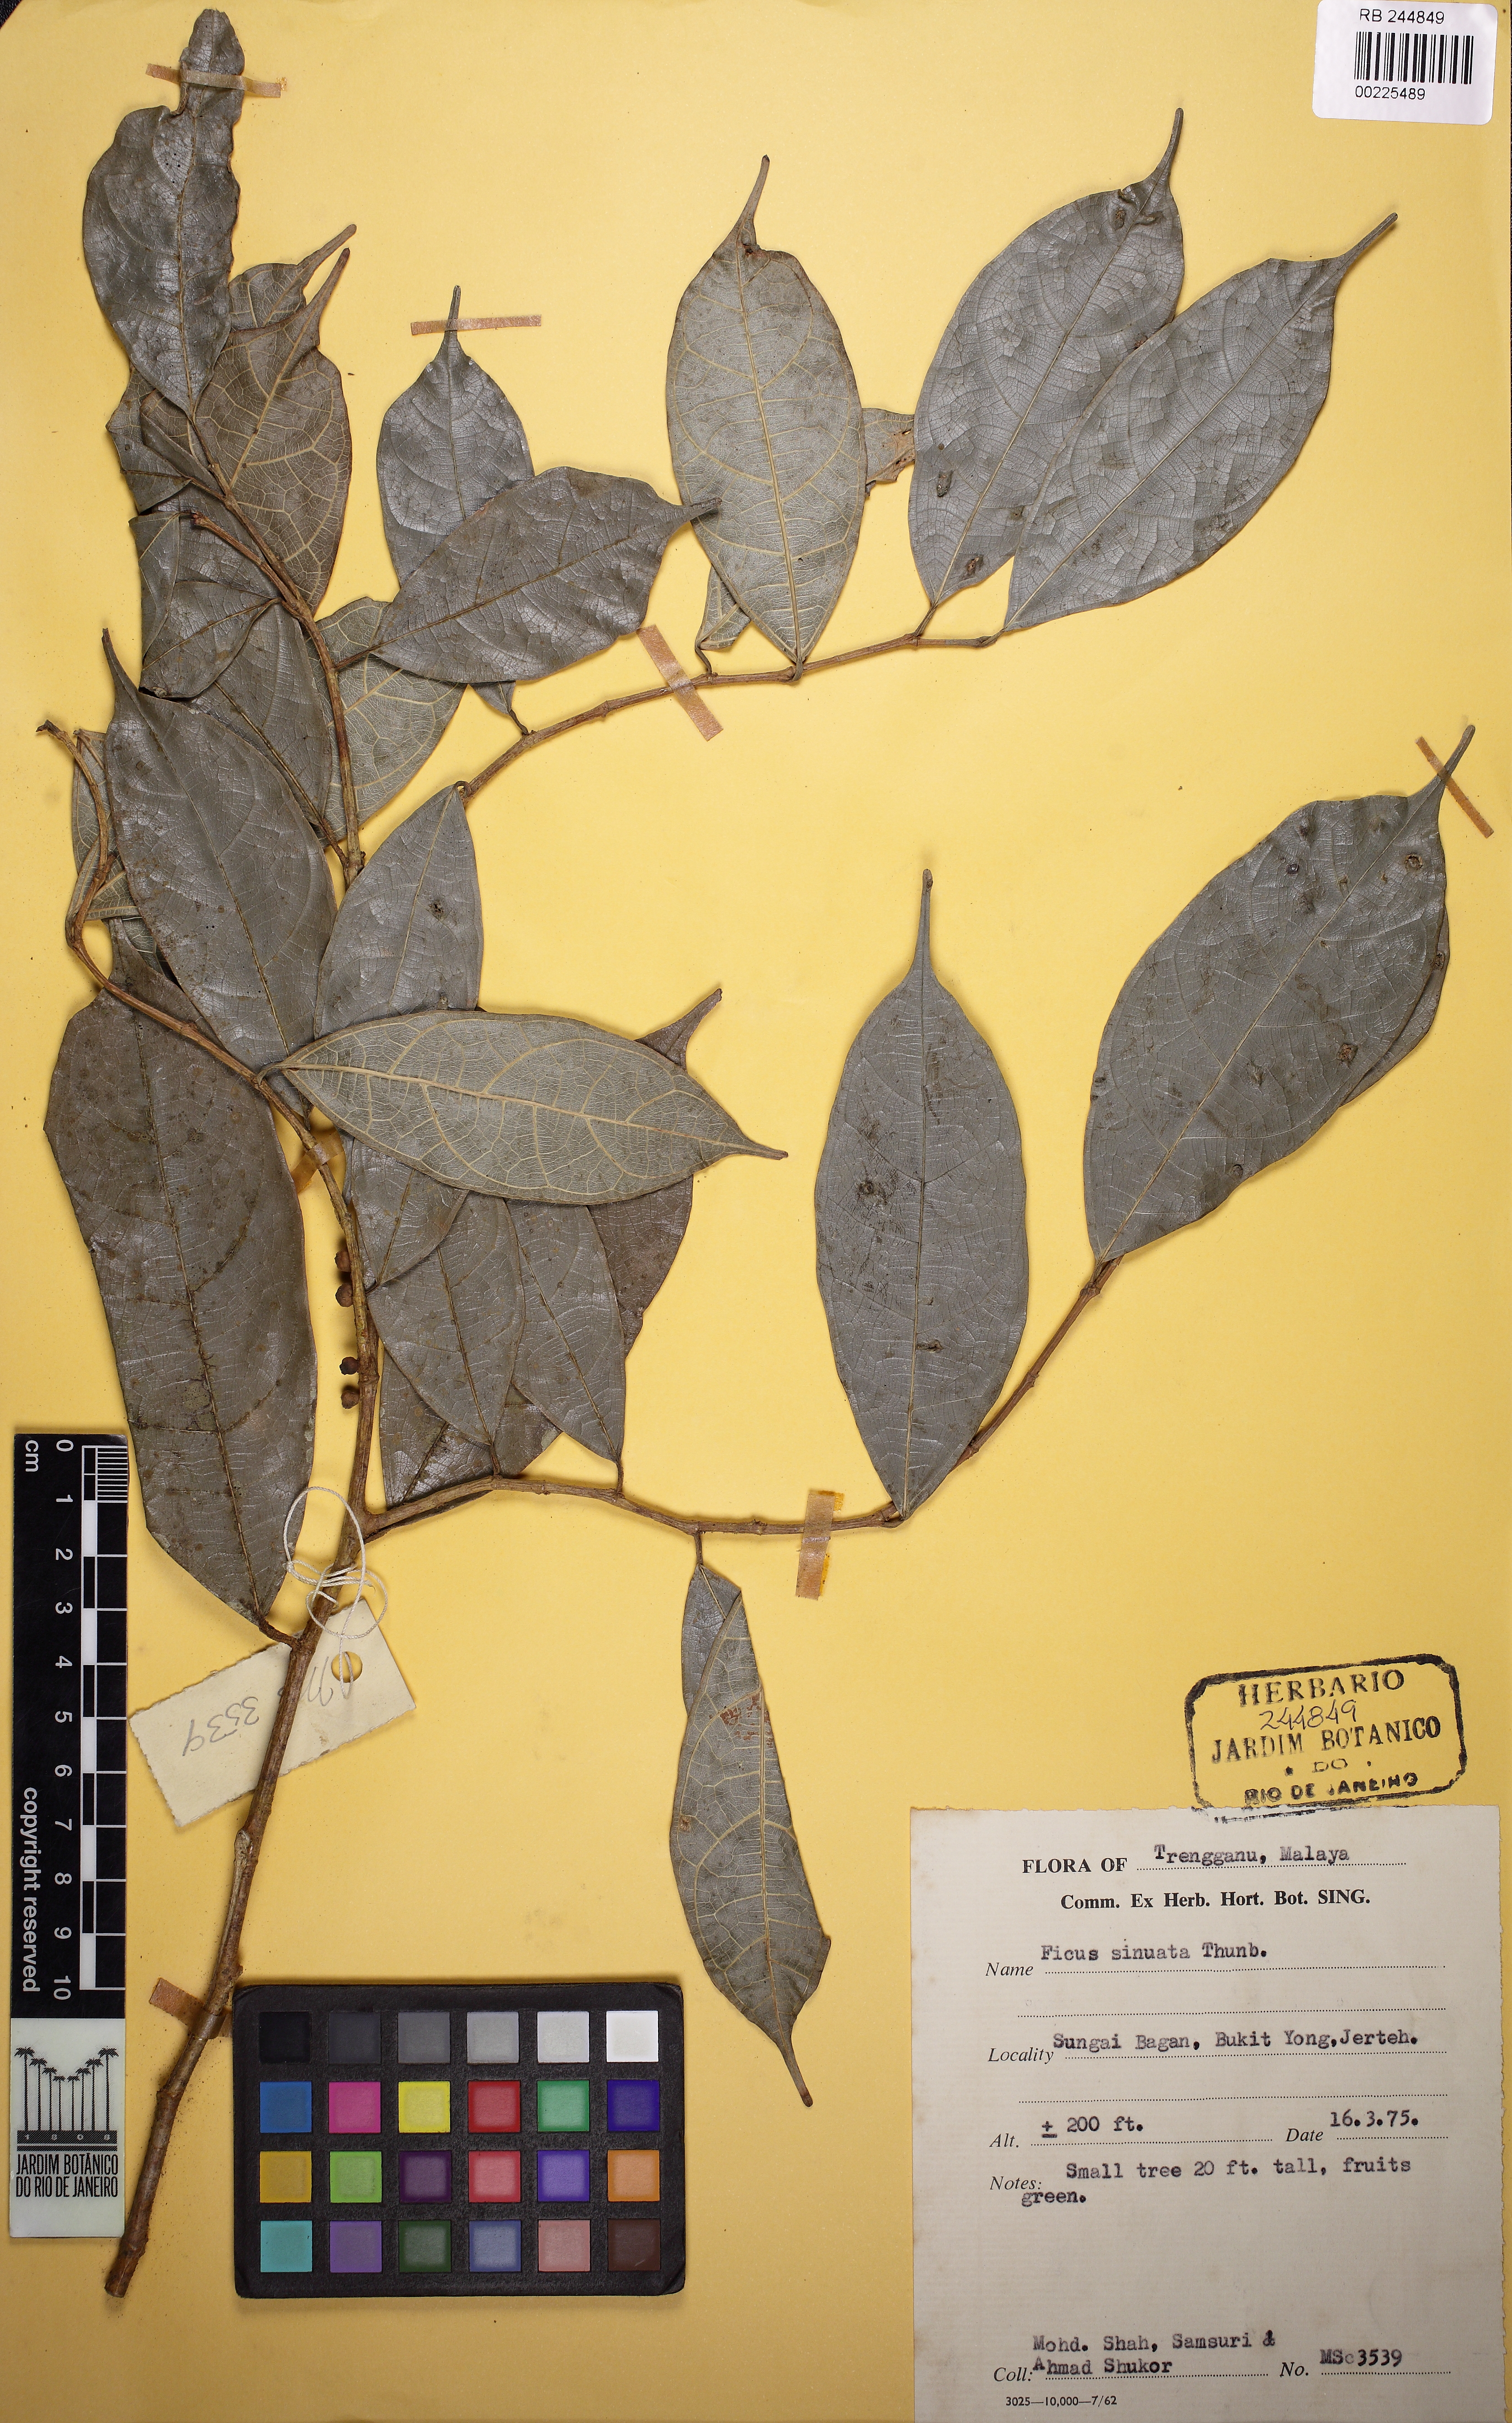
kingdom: Plantae
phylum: Tracheophyta
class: Magnoliopsida
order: Rosales
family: Moraceae
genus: Ficus
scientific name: Ficus sinuata
